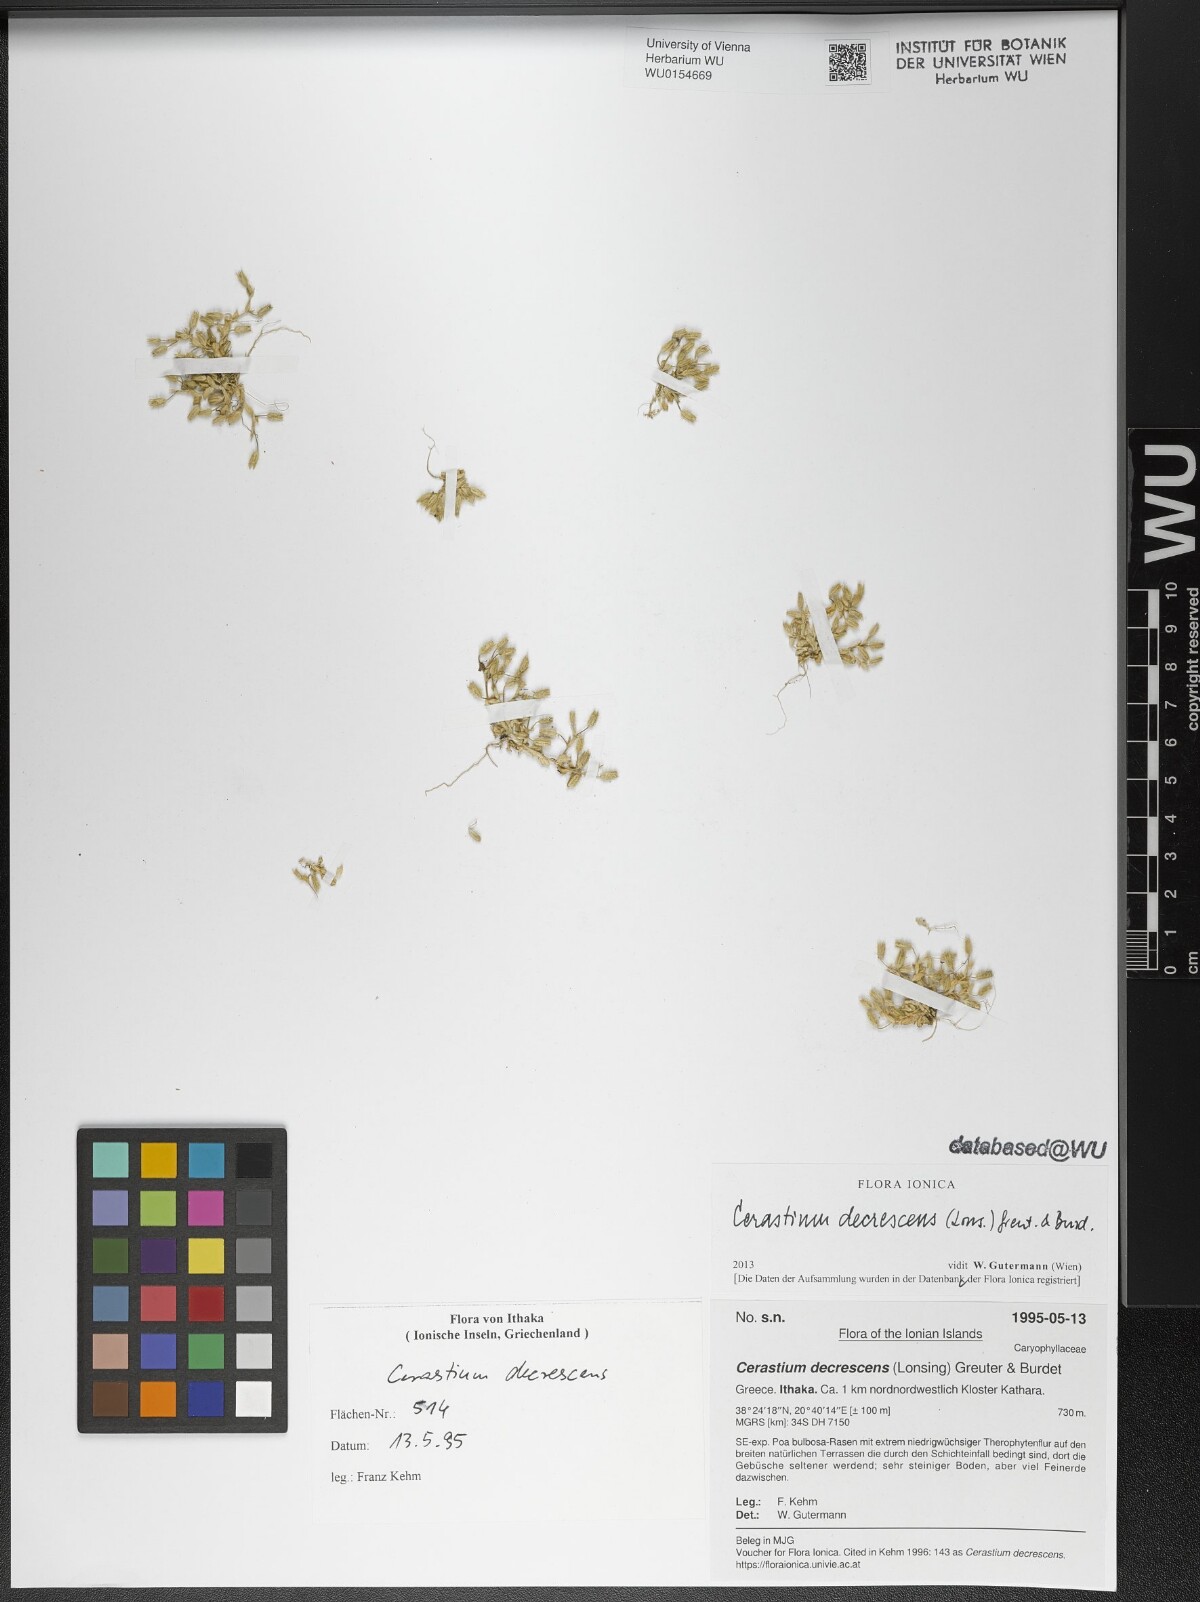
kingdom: Plantae
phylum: Tracheophyta
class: Magnoliopsida
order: Caryophyllales
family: Caryophyllaceae
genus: Cerastium
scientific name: Cerastium illyricum
